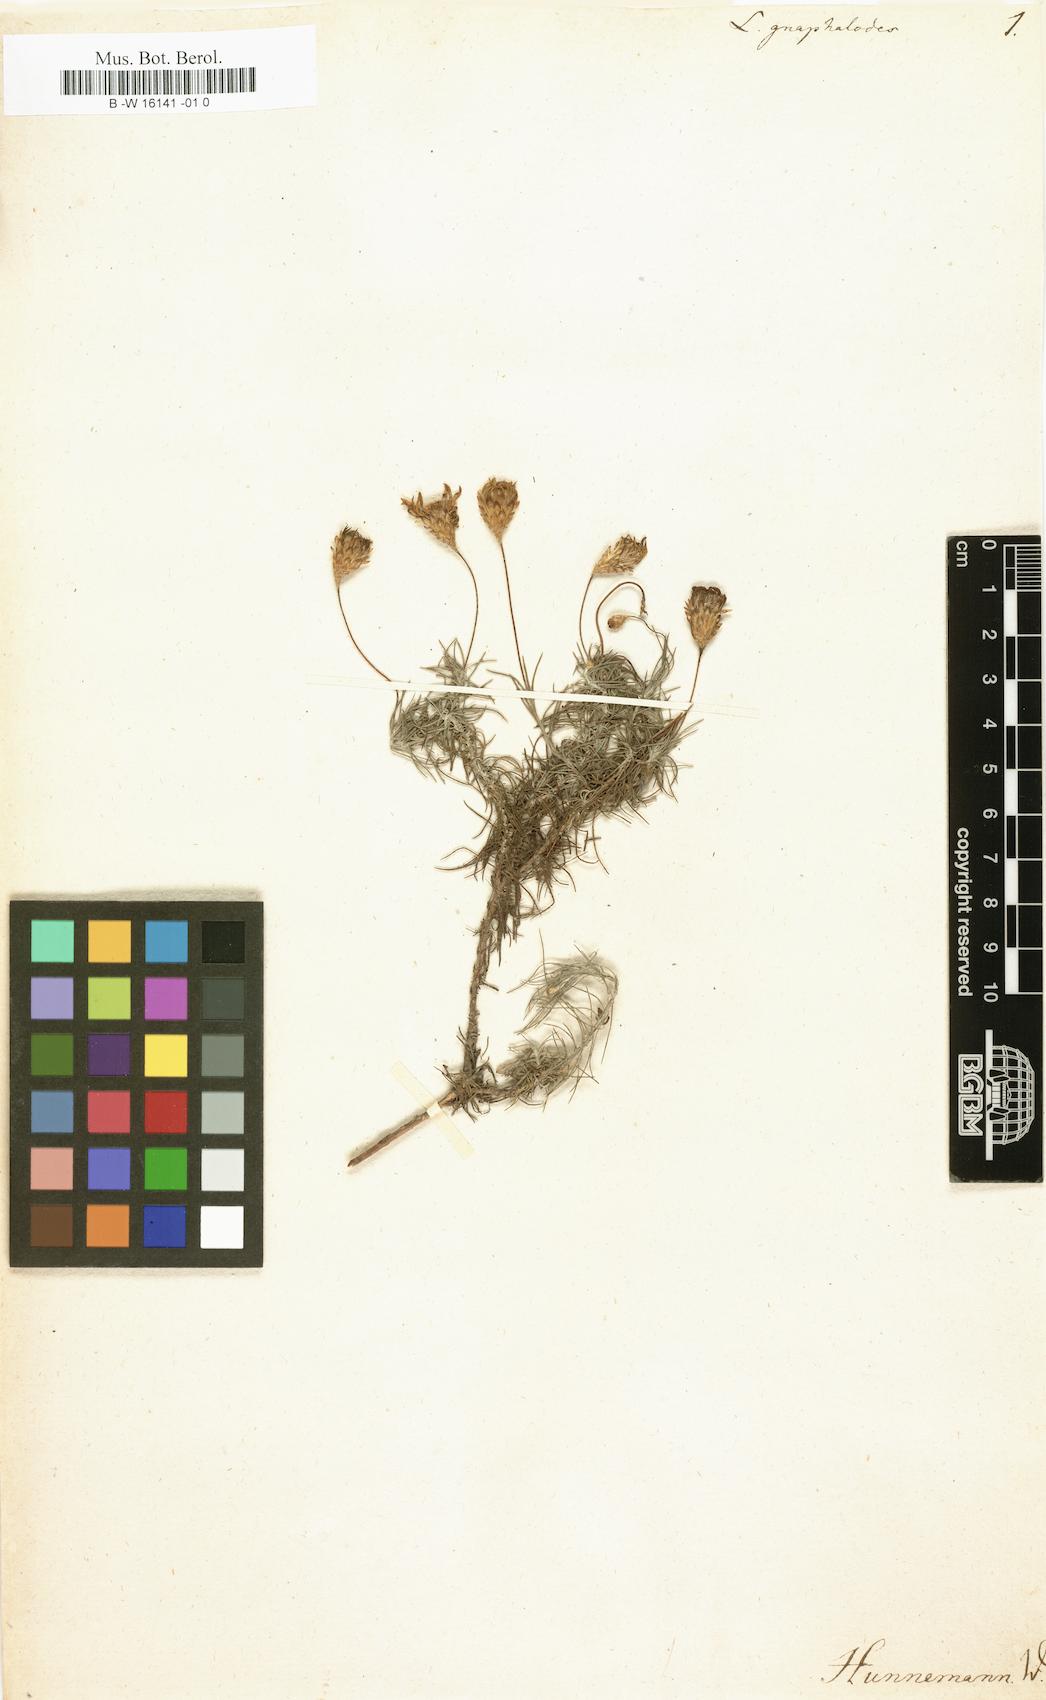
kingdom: Plantae
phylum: Tracheophyta
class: Magnoliopsida
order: Asterales
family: Asteraceae
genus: Leysera
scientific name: Leysera gnaphalodes
